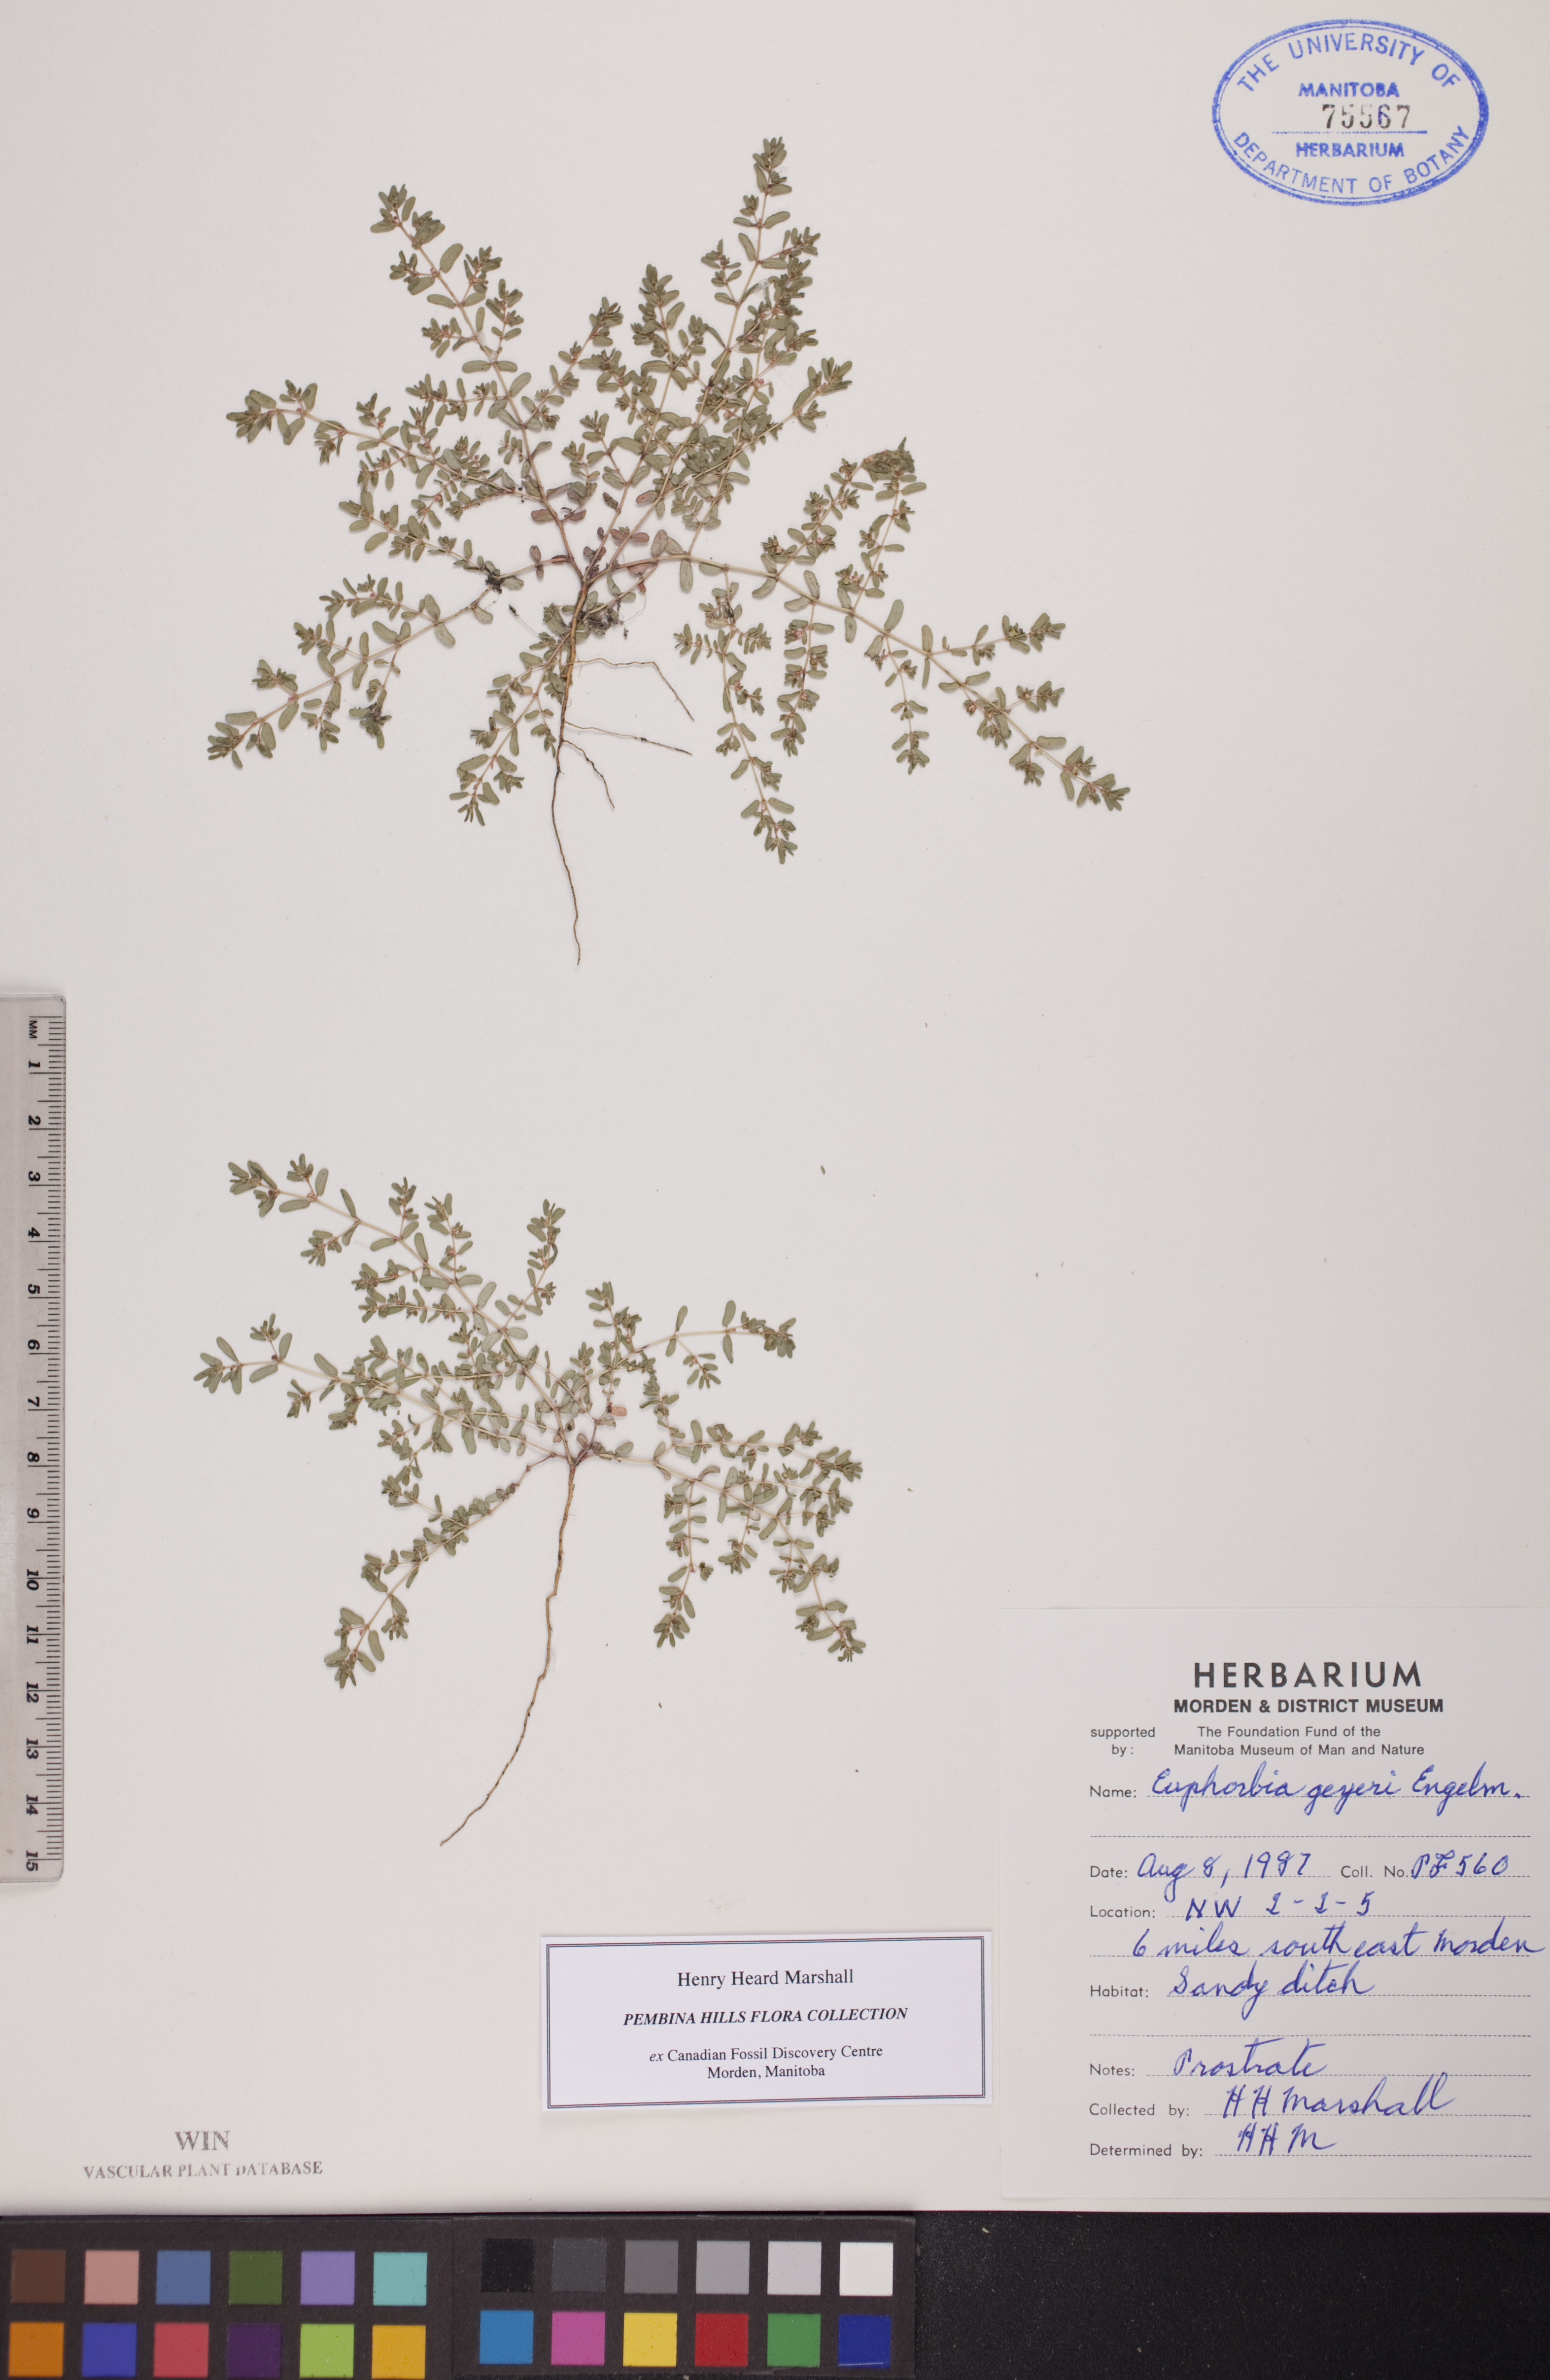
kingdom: Plantae
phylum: Tracheophyta
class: Magnoliopsida
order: Malpighiales
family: Euphorbiaceae
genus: Euphorbia
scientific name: Euphorbia geyeri
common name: Geyer's spurge
